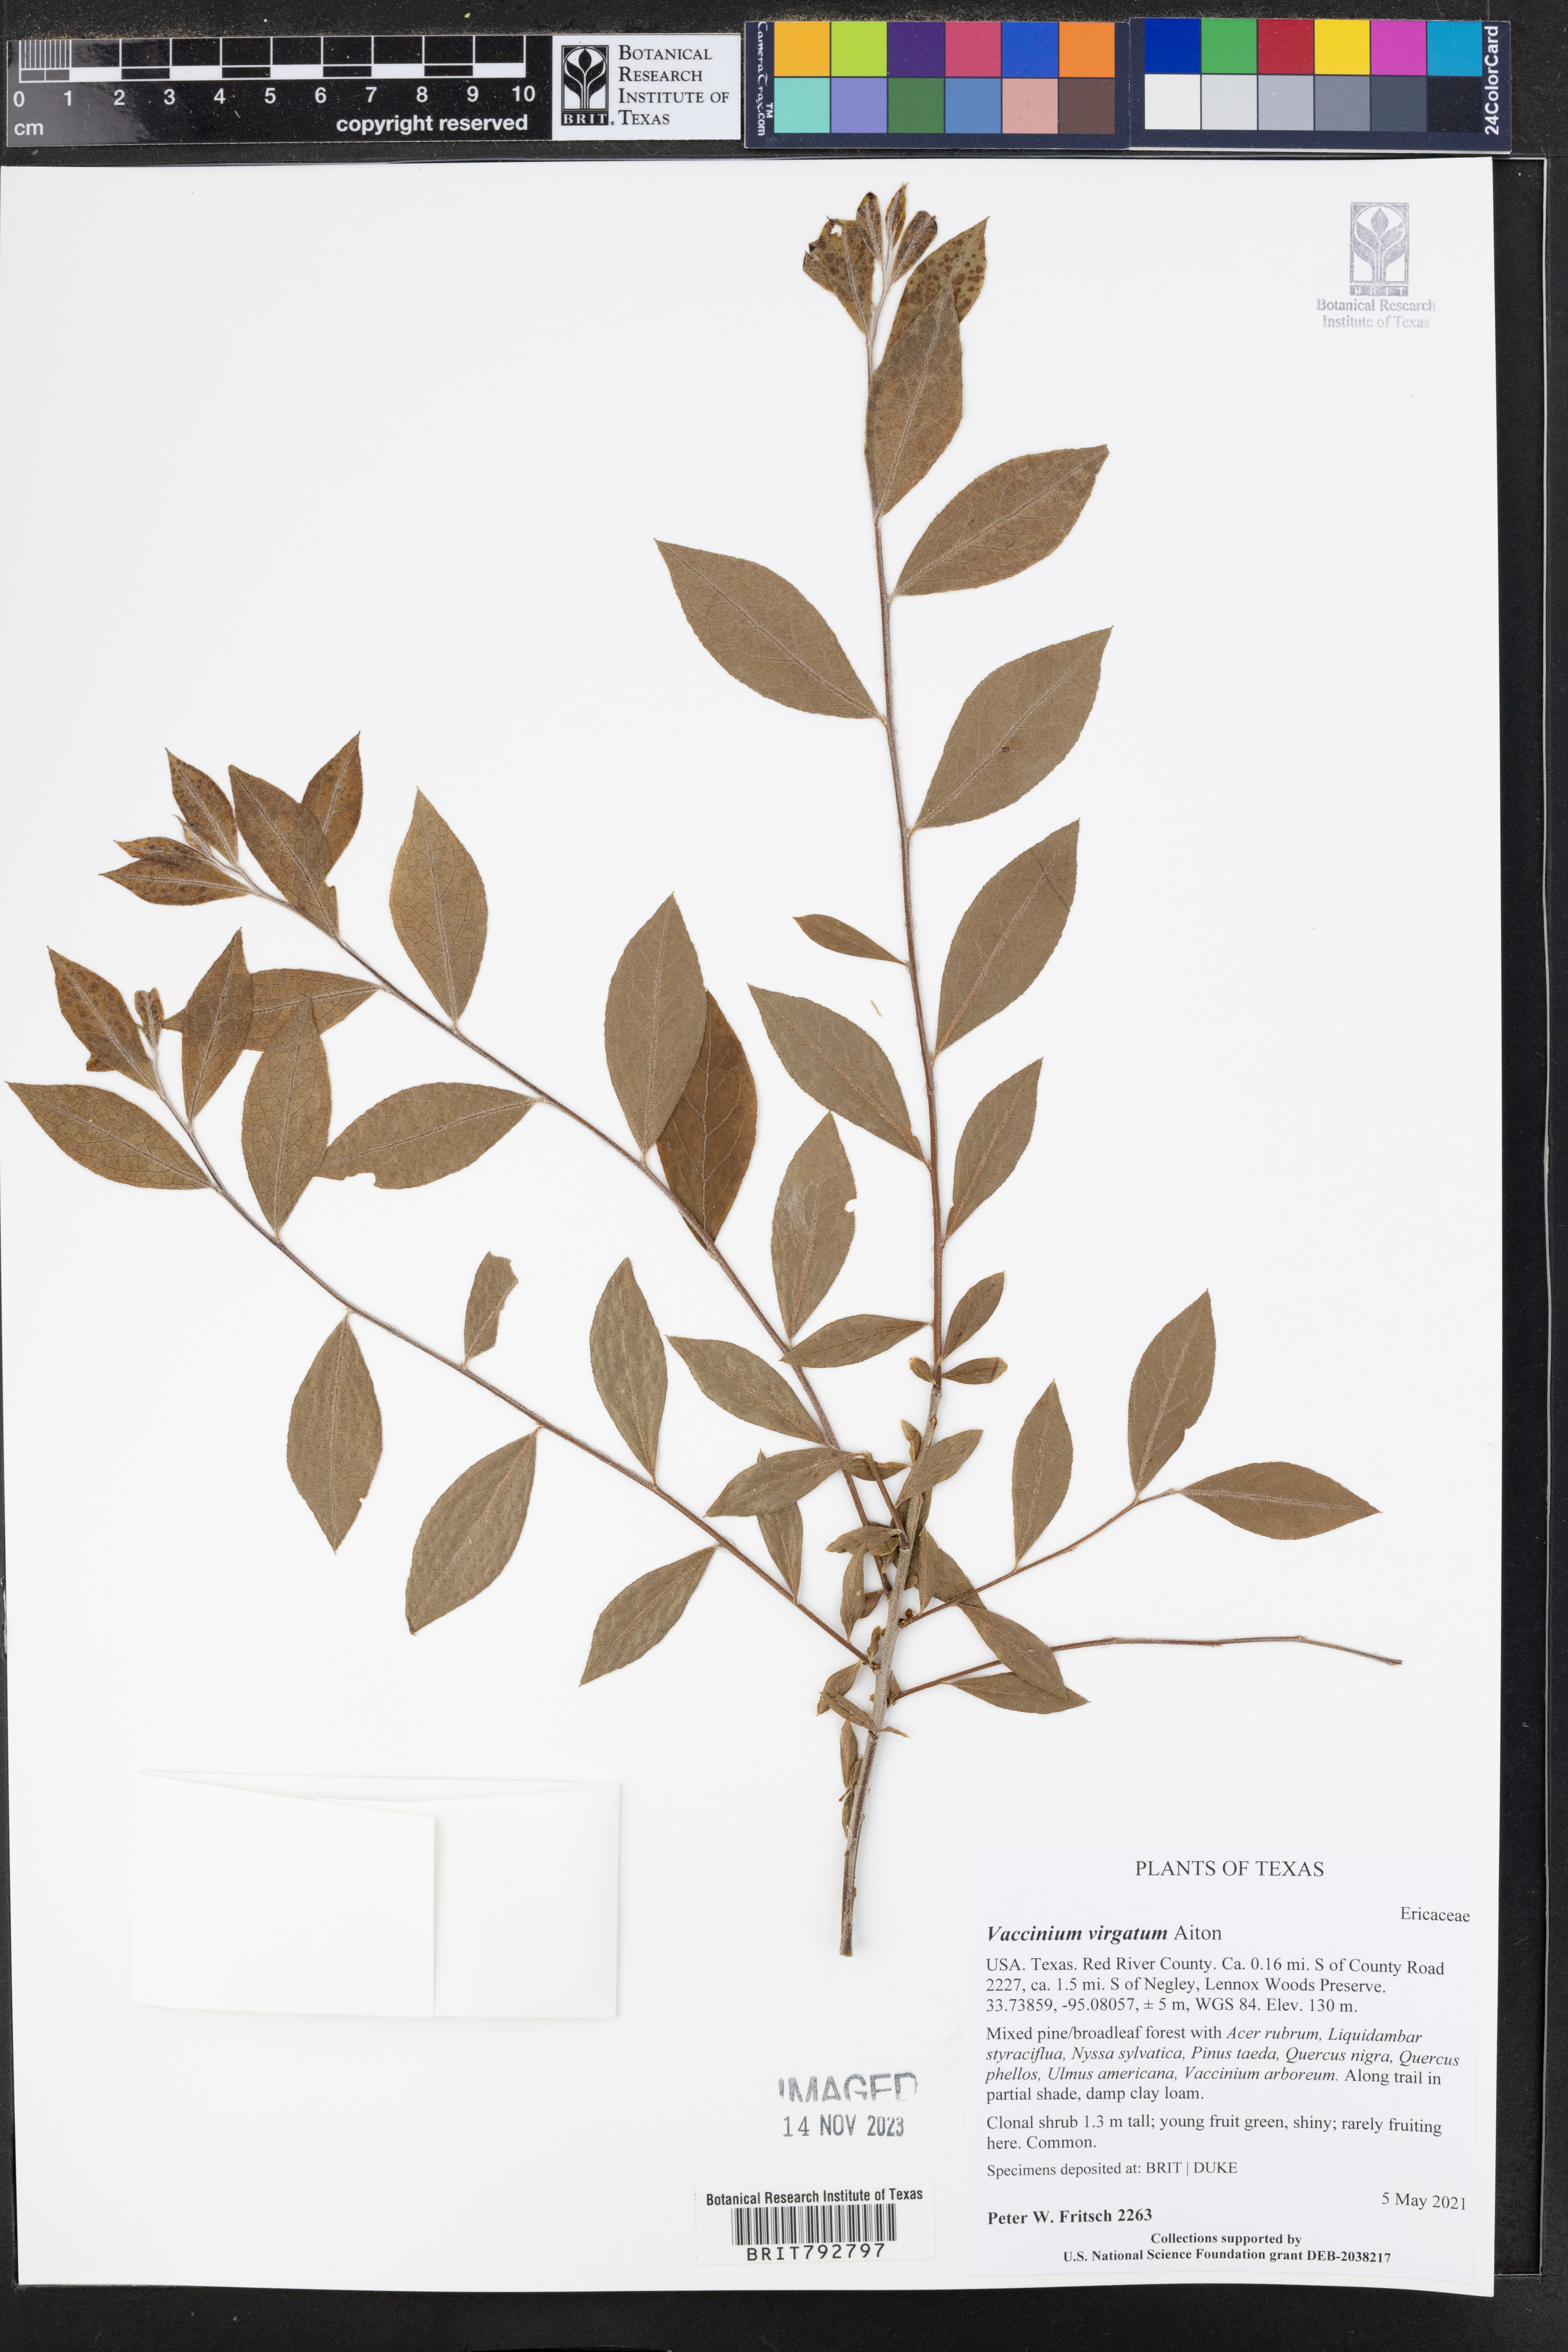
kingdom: Plantae
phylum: Tracheophyta
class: Magnoliopsida
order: Ericales
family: Ericaceae
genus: Vaccinium
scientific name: Vaccinium corymbosum
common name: Blueberry
